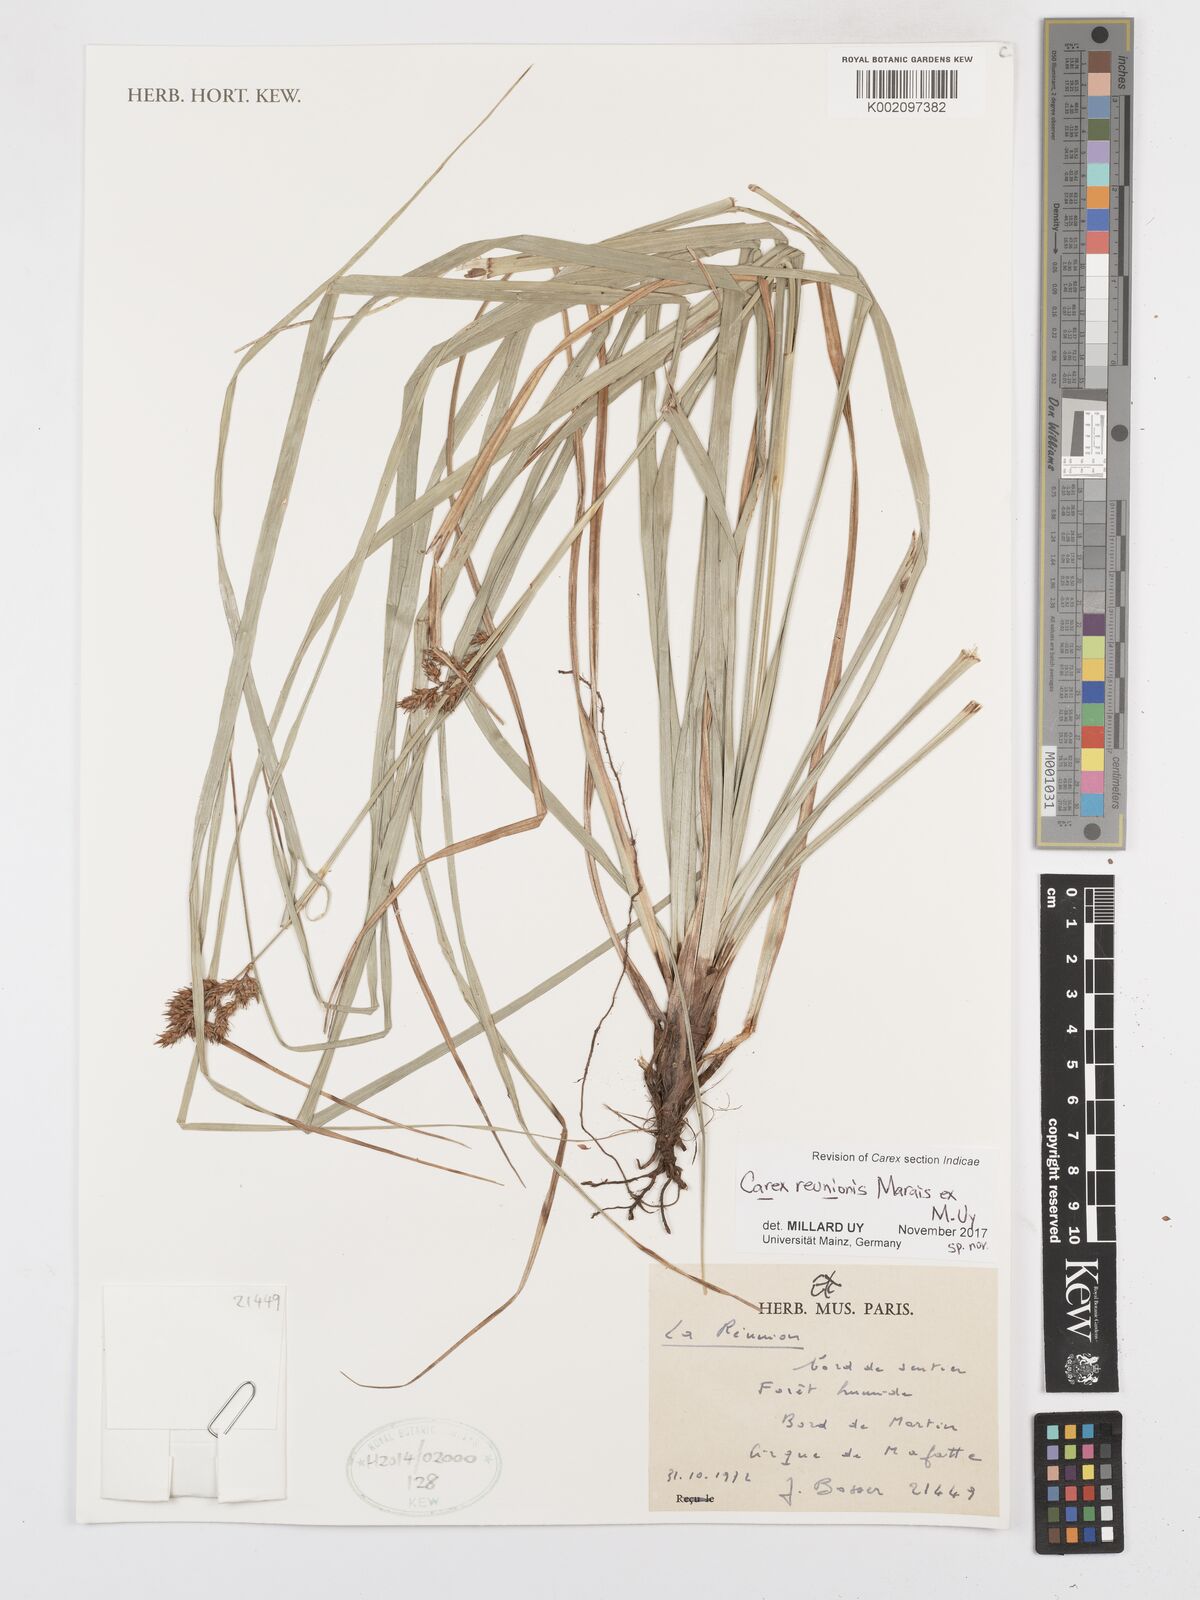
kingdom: Plantae
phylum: Tracheophyta
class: Liliopsida
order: Poales
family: Cyperaceae
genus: Carex
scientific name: Carex
